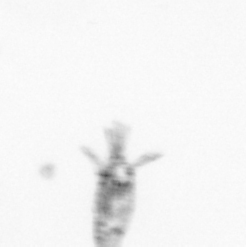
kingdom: Animalia
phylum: Arthropoda
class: Copepoda
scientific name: Copepoda
